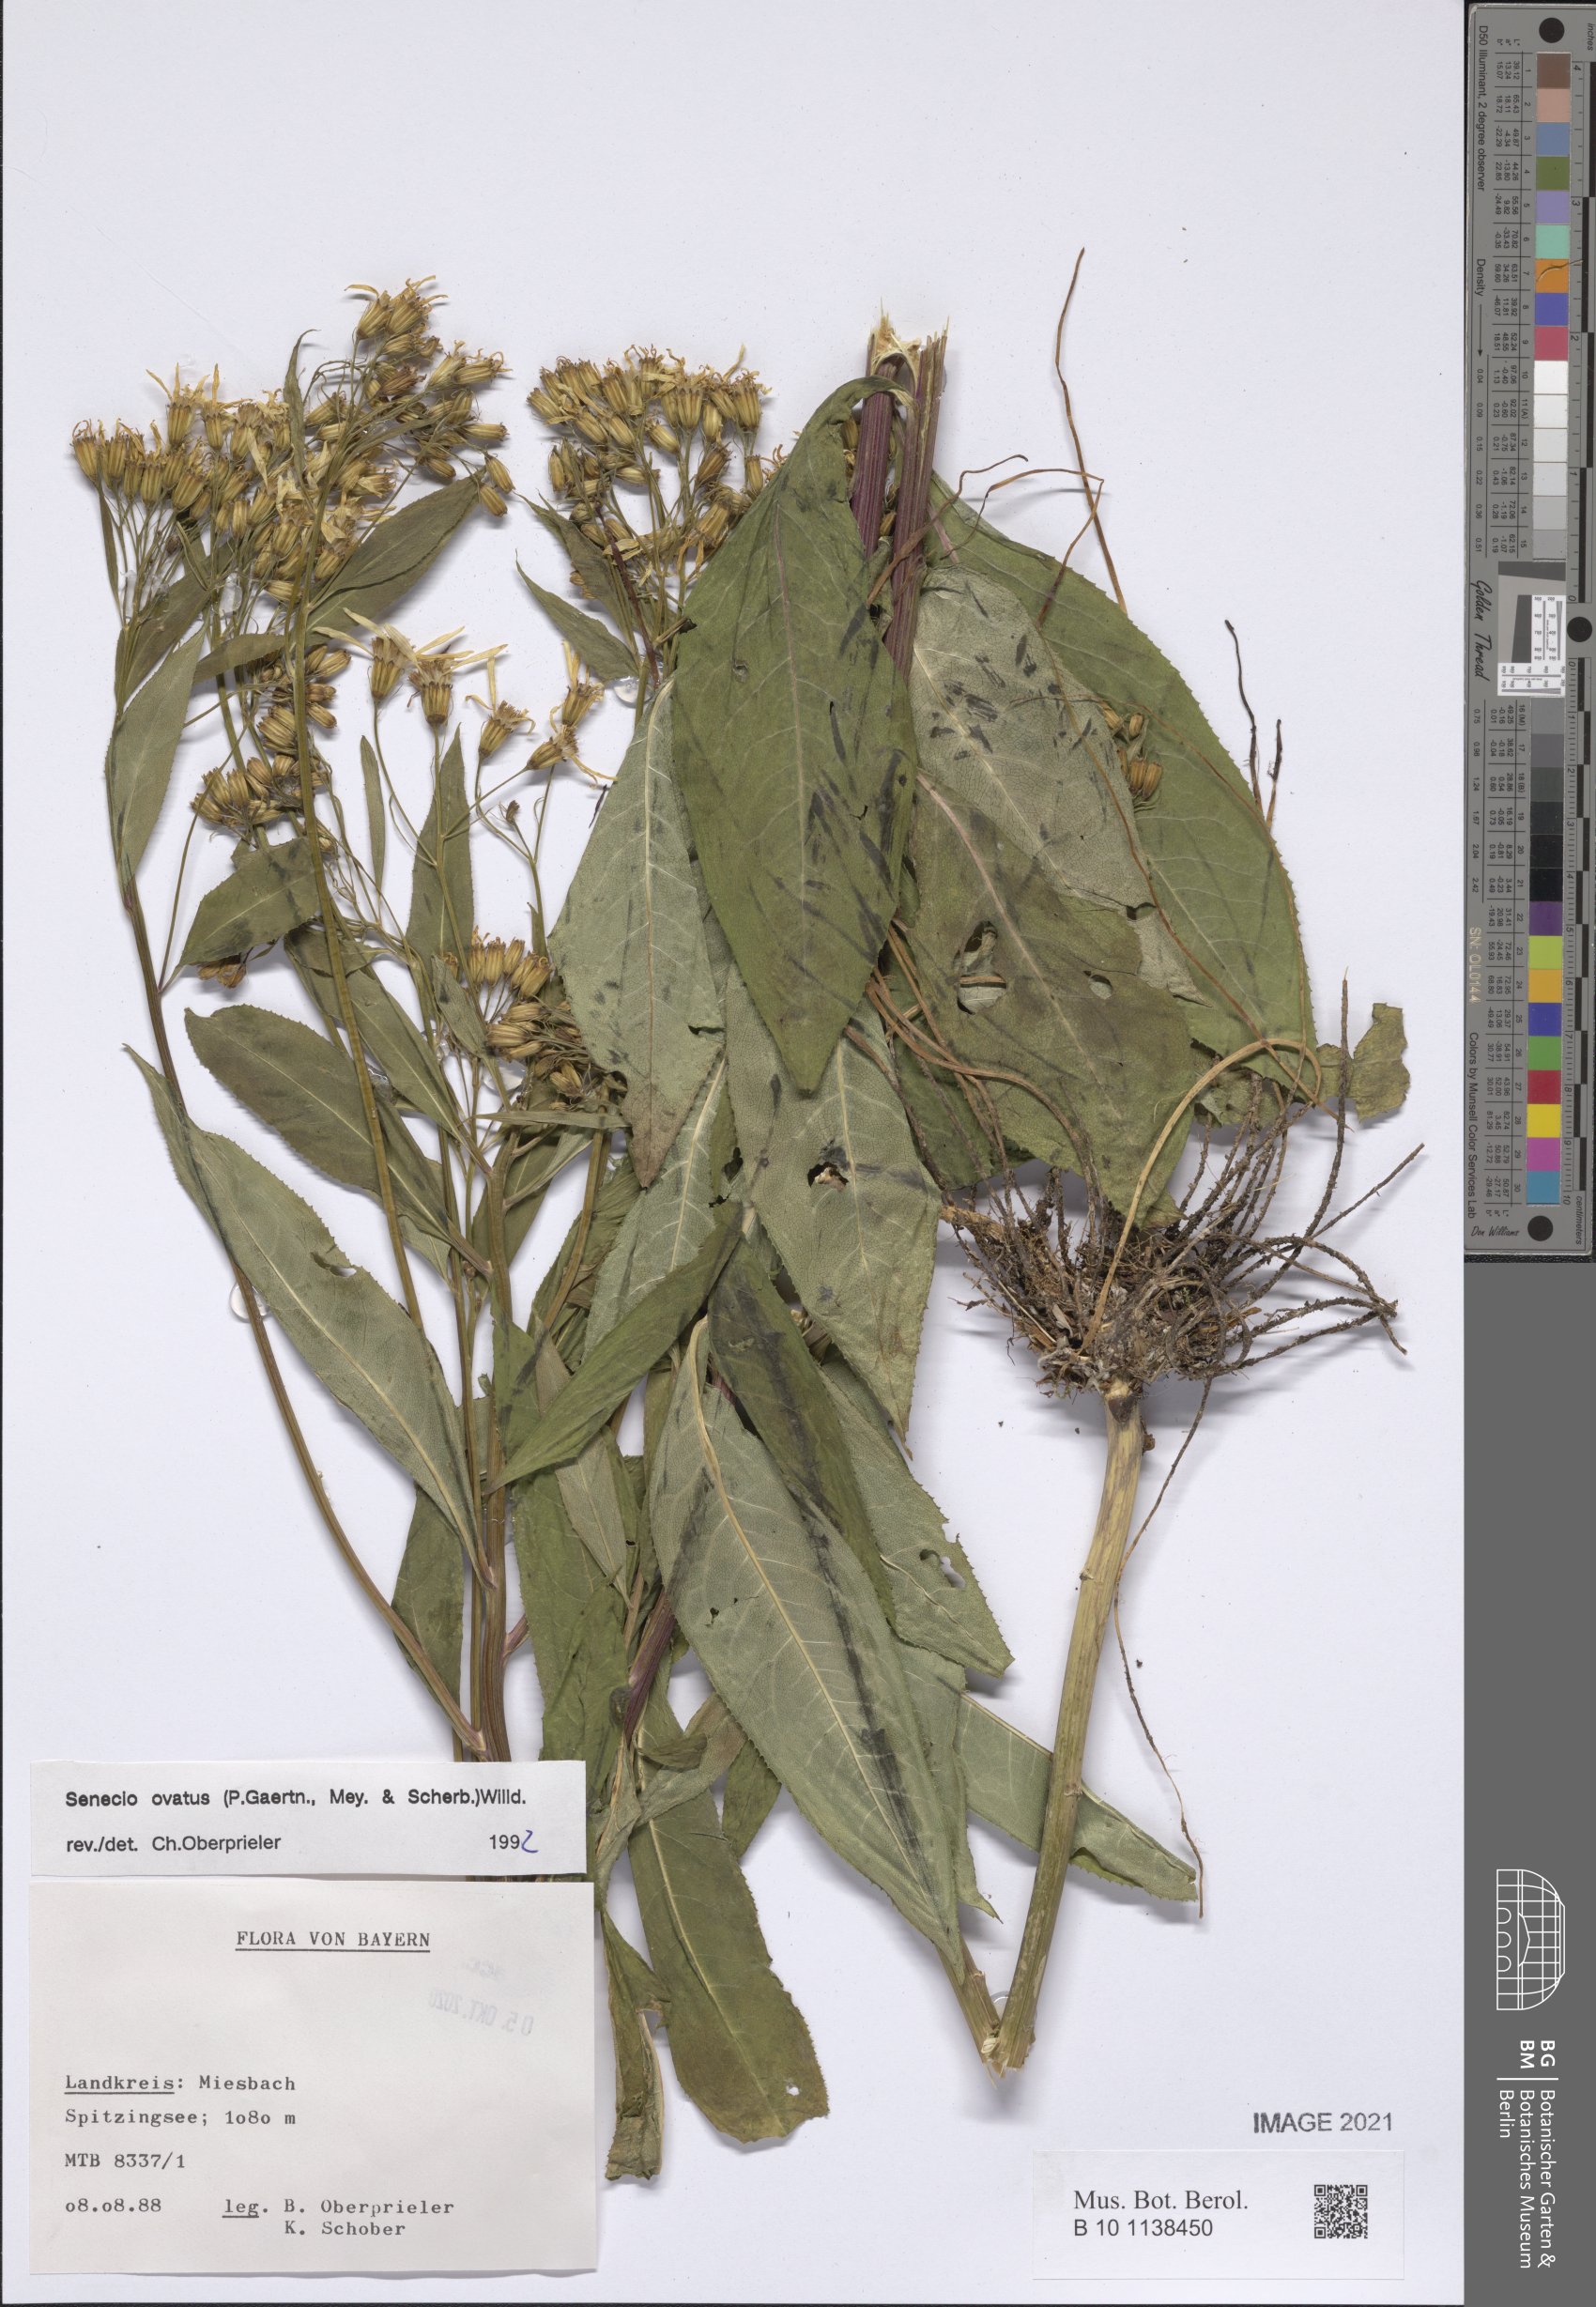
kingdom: Plantae
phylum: Tracheophyta
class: Magnoliopsida
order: Asterales
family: Asteraceae
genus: Senecio
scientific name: Senecio ovatus
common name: Wood ragwort
